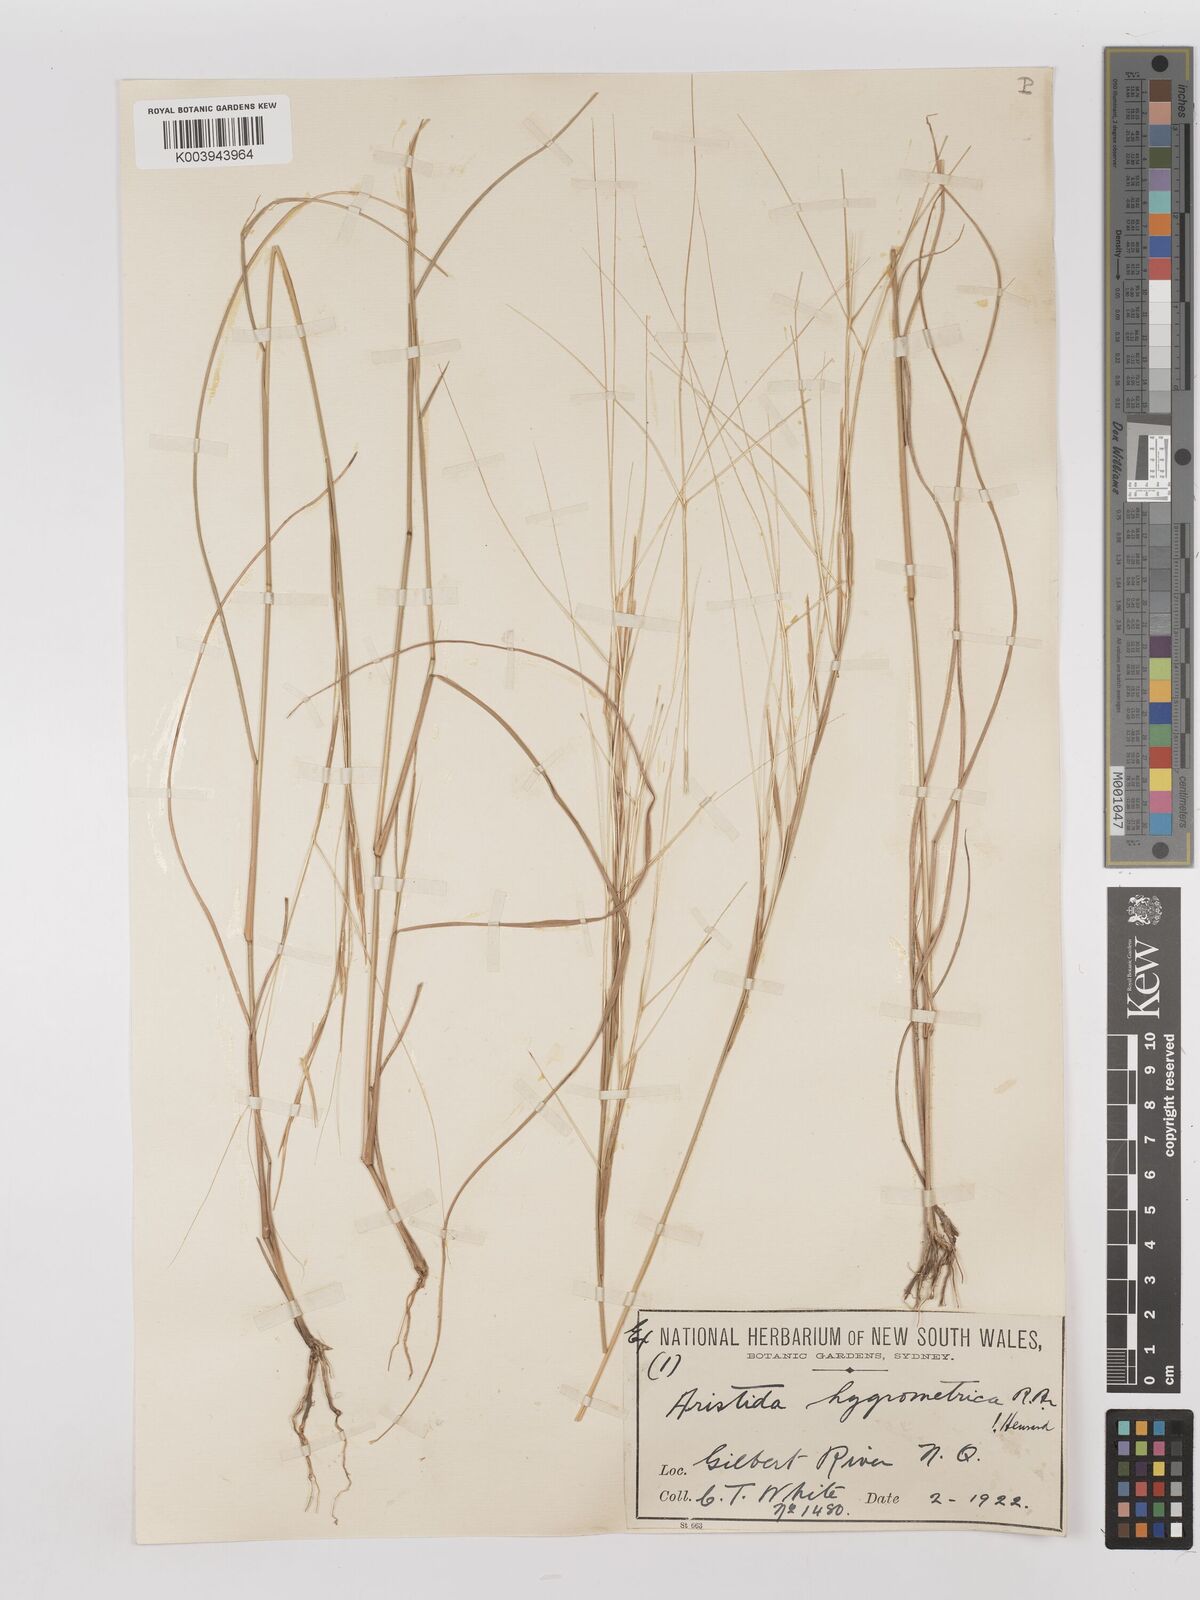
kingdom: Plantae
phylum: Tracheophyta
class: Liliopsida
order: Poales
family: Poaceae
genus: Aristida
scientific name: Aristida hygrometrica
